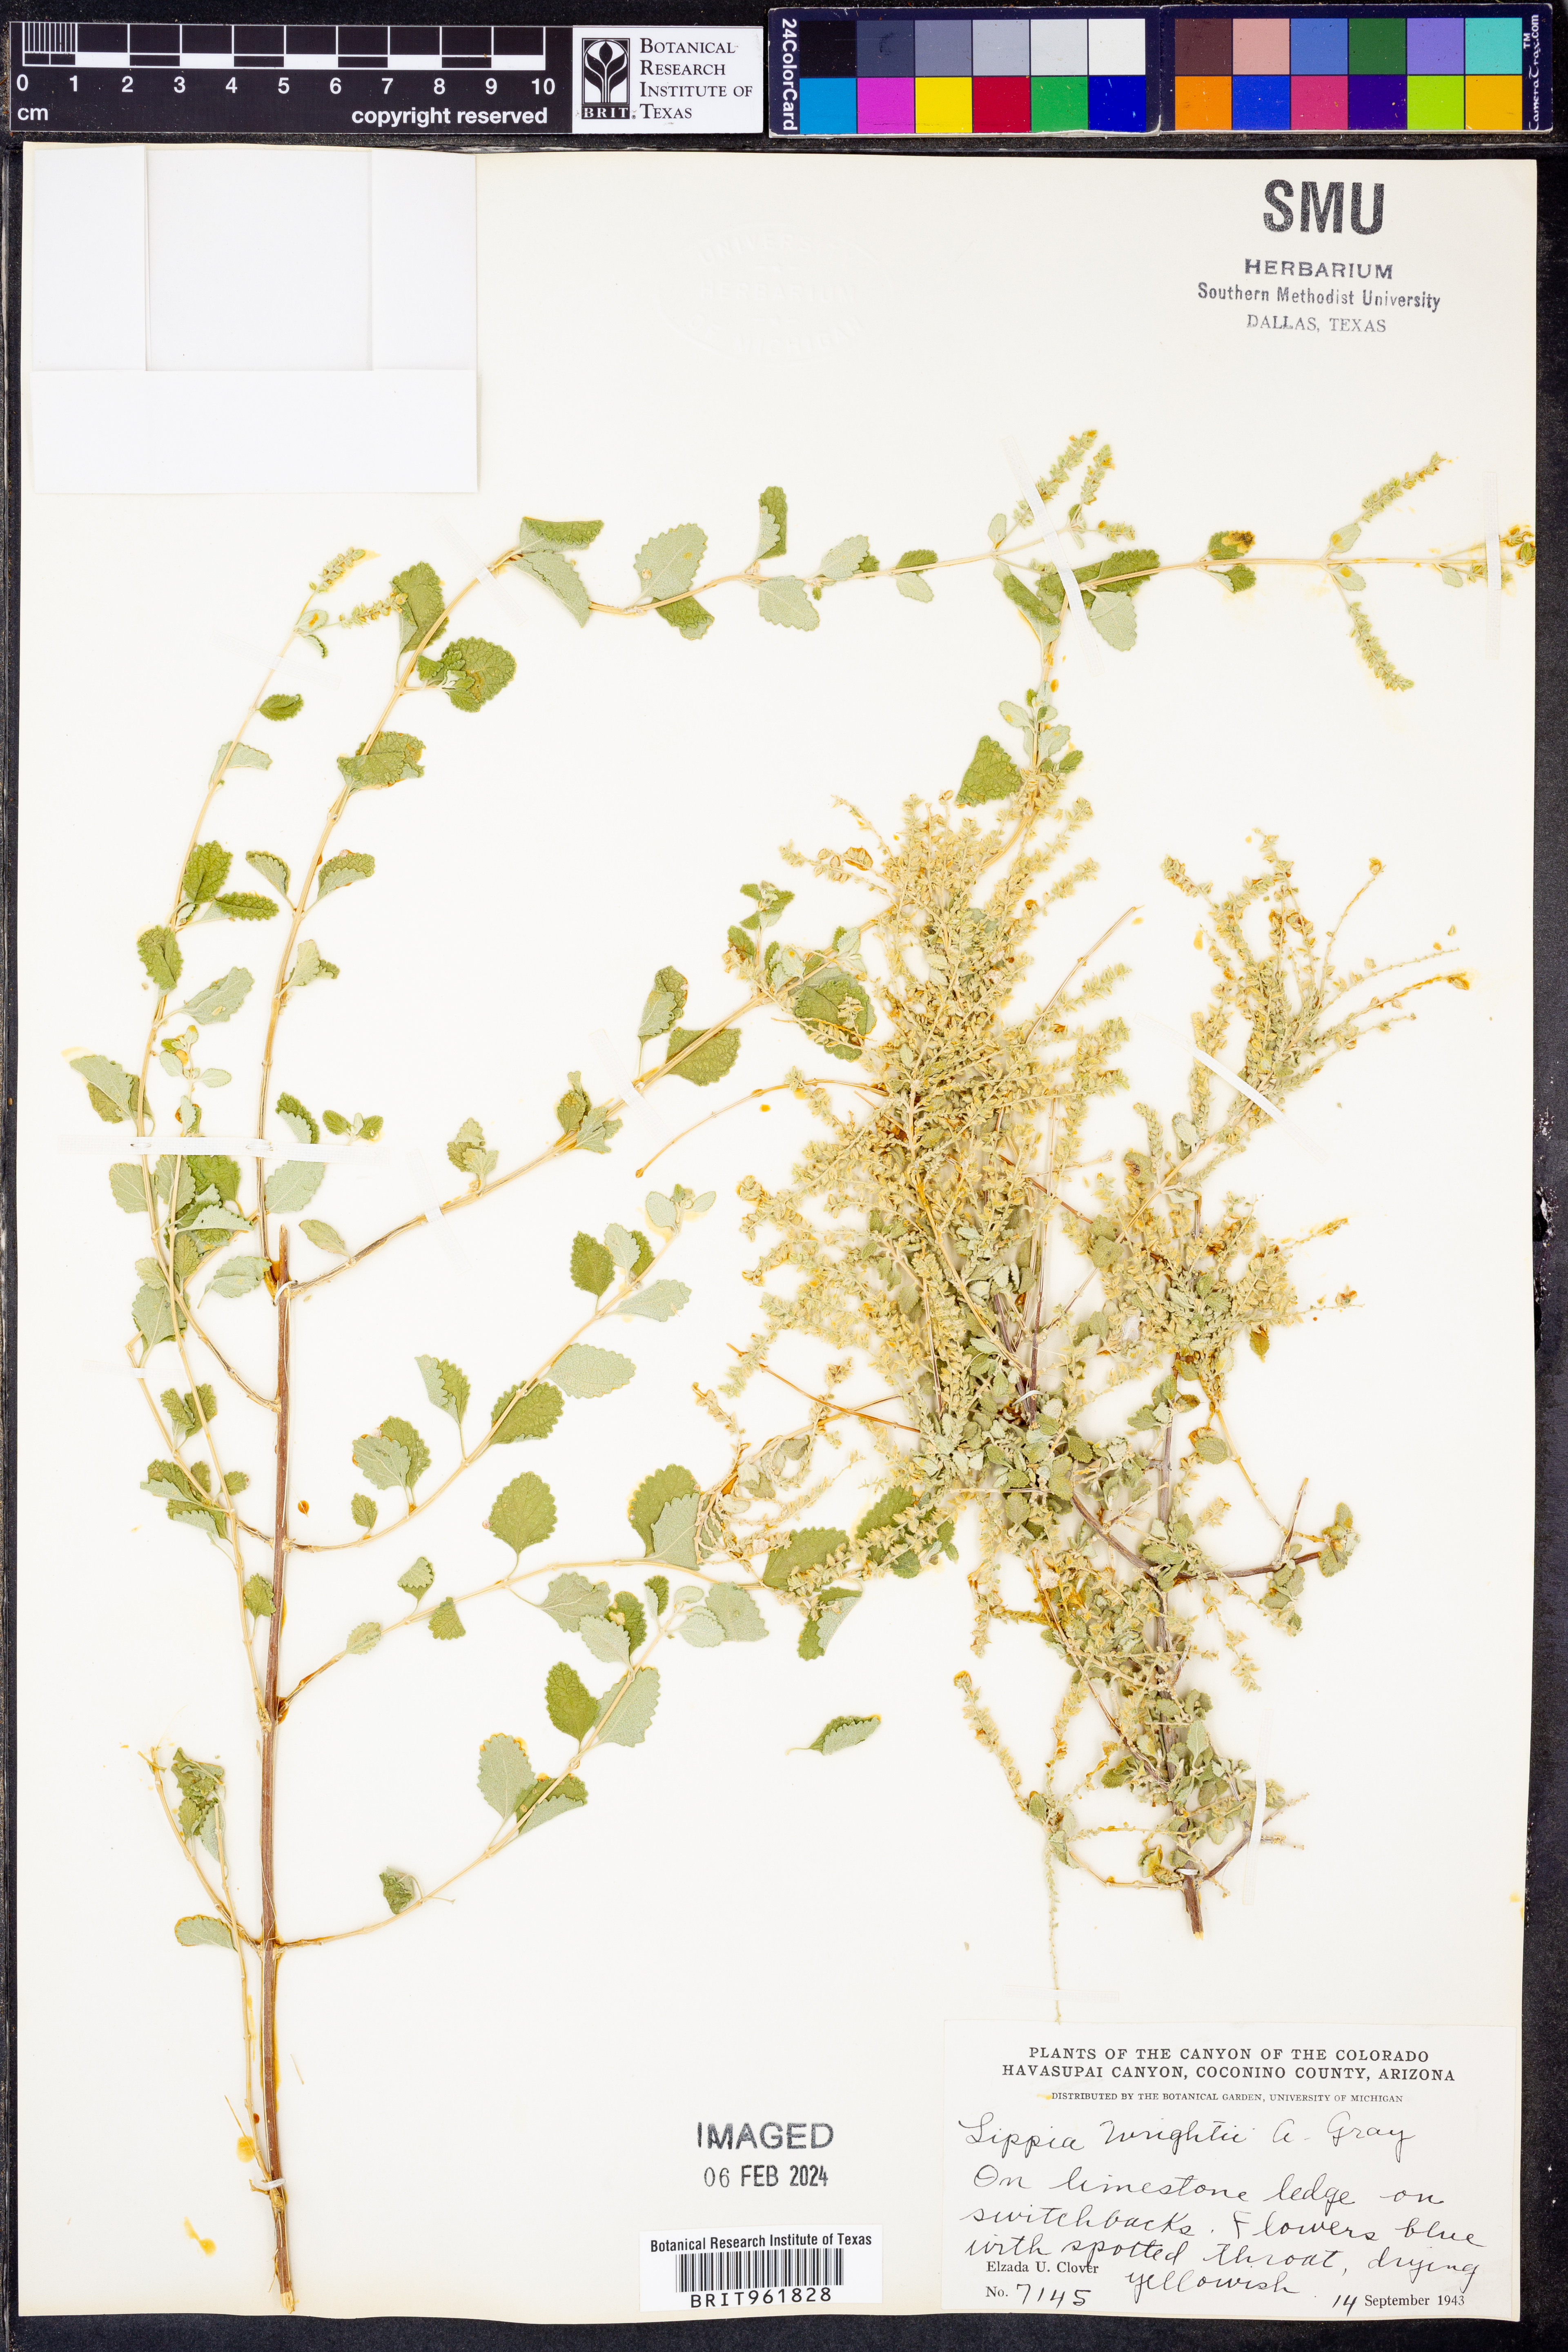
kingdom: Plantae
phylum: Tracheophyta
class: Magnoliopsida
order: Lamiales
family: Verbenaceae
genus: Aloysia
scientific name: Aloysia wrightii
